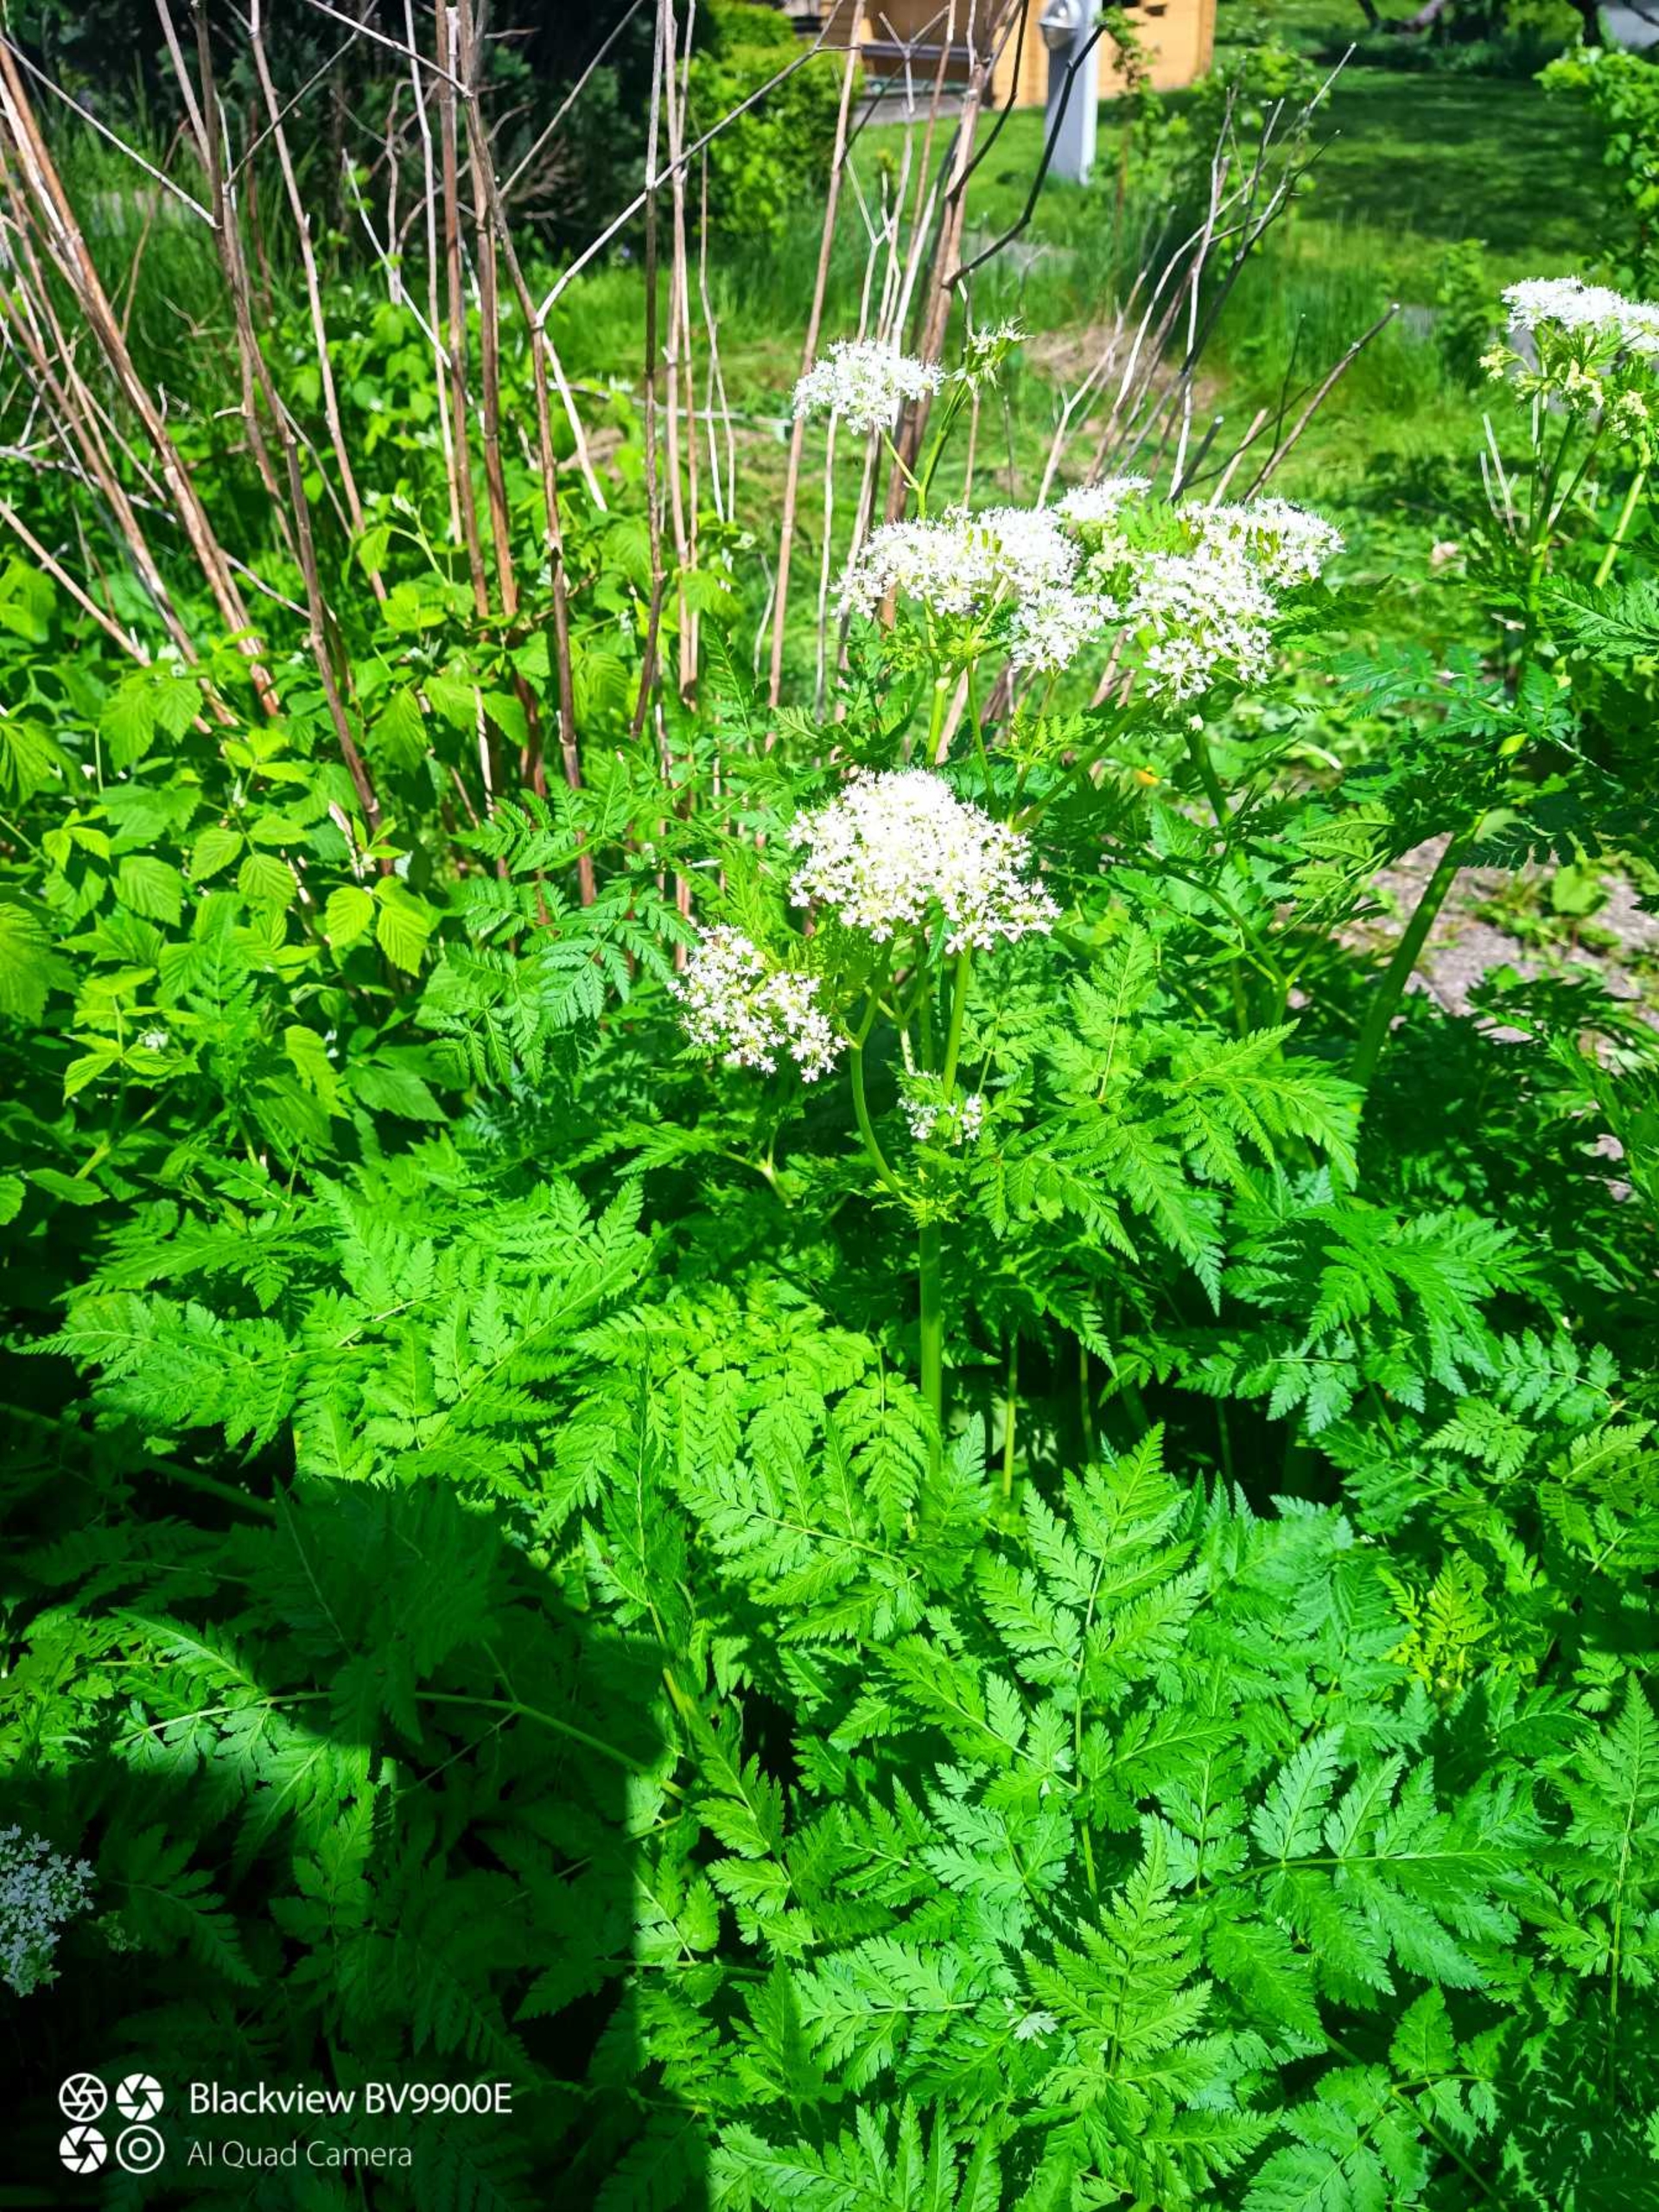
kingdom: Plantae
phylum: Tracheophyta
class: Magnoliopsida
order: Apiales
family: Apiaceae
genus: Myrrhis
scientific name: Myrrhis odorata
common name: Sødskærm
